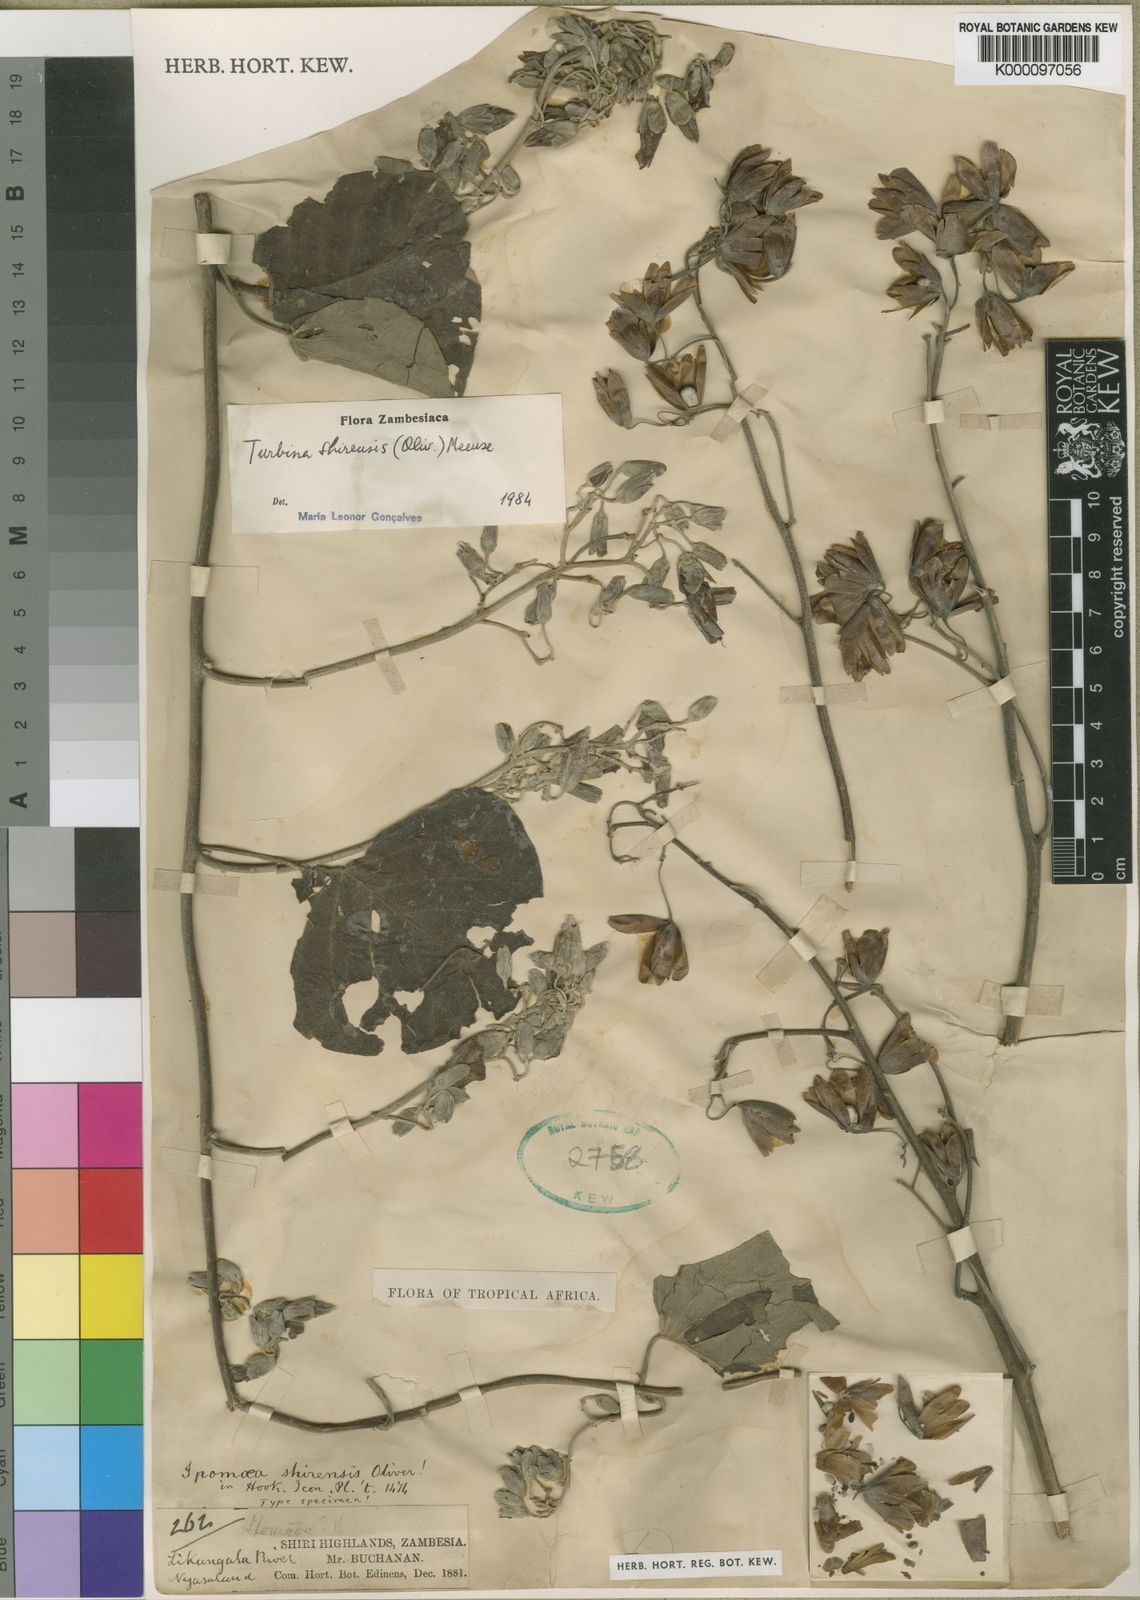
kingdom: Plantae
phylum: Tracheophyta
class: Magnoliopsida
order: Solanales
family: Convolvulaceae
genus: Paralepistemon
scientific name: Paralepistemon shirensis
